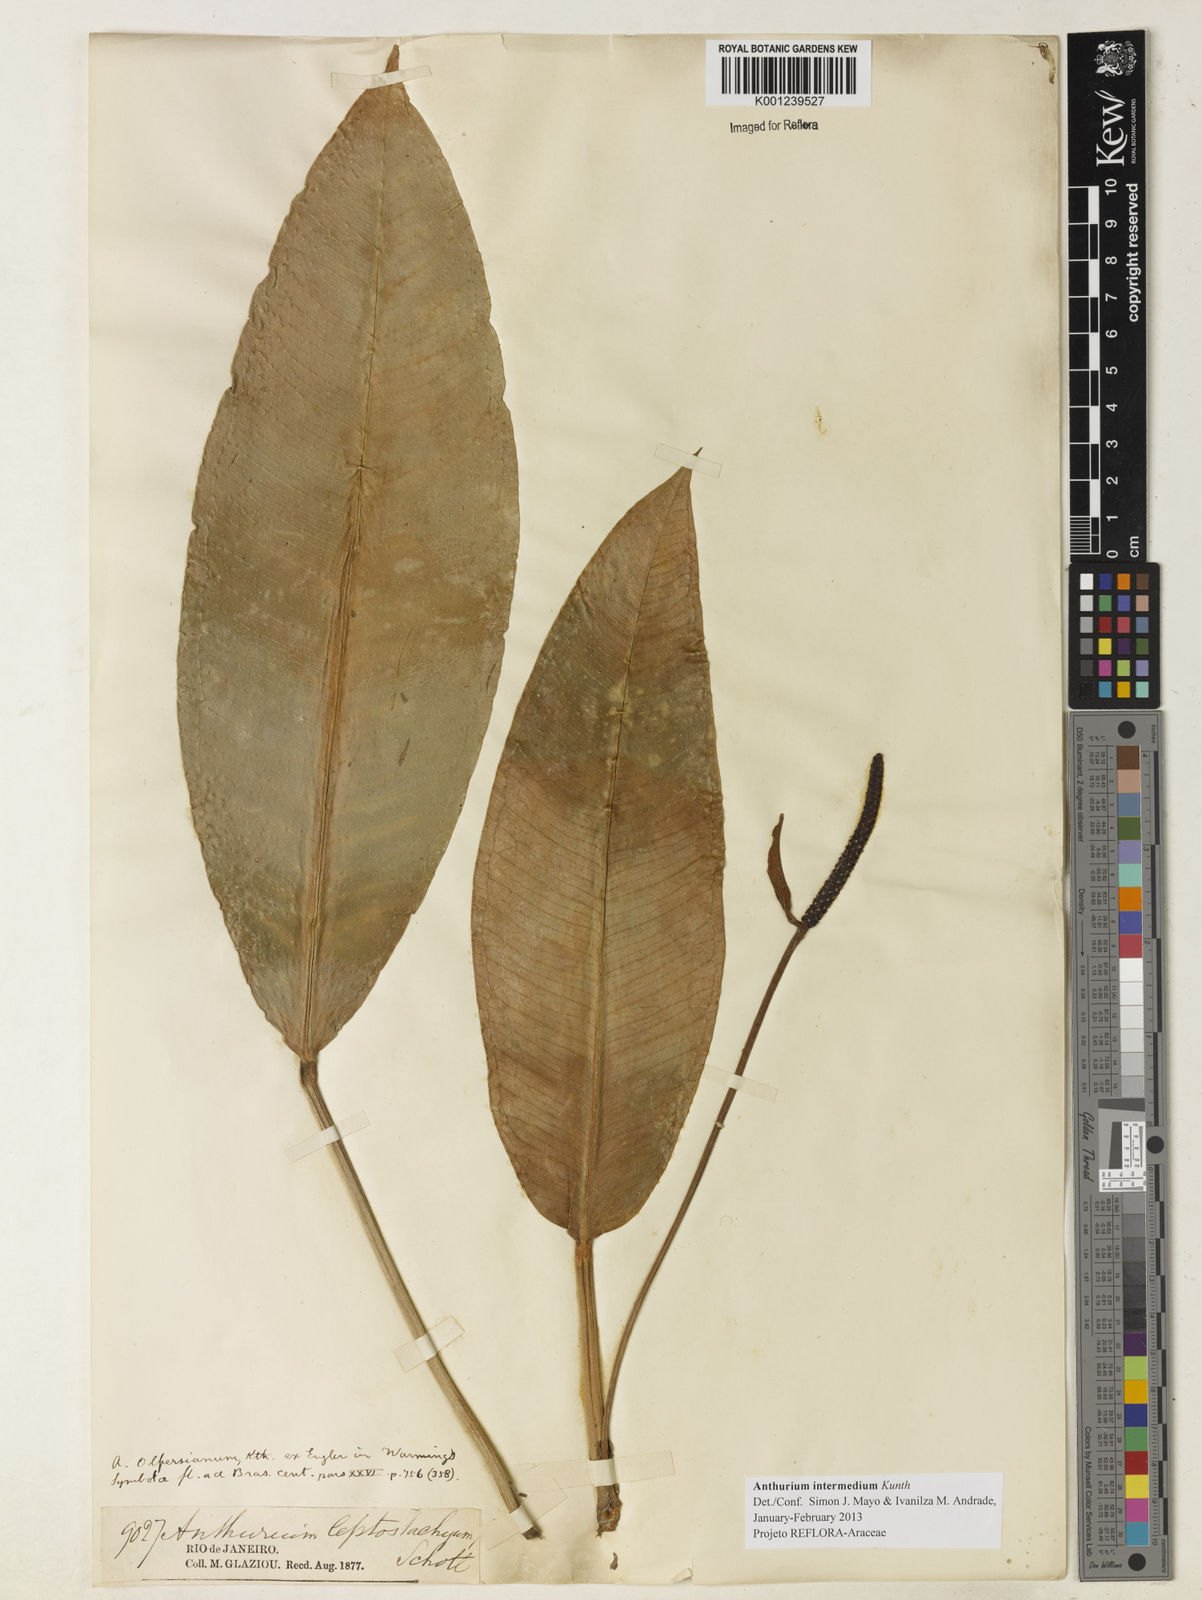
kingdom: Plantae
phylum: Tracheophyta
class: Liliopsida
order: Alismatales
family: Araceae
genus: Anthurium
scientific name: Anthurium intermedium
